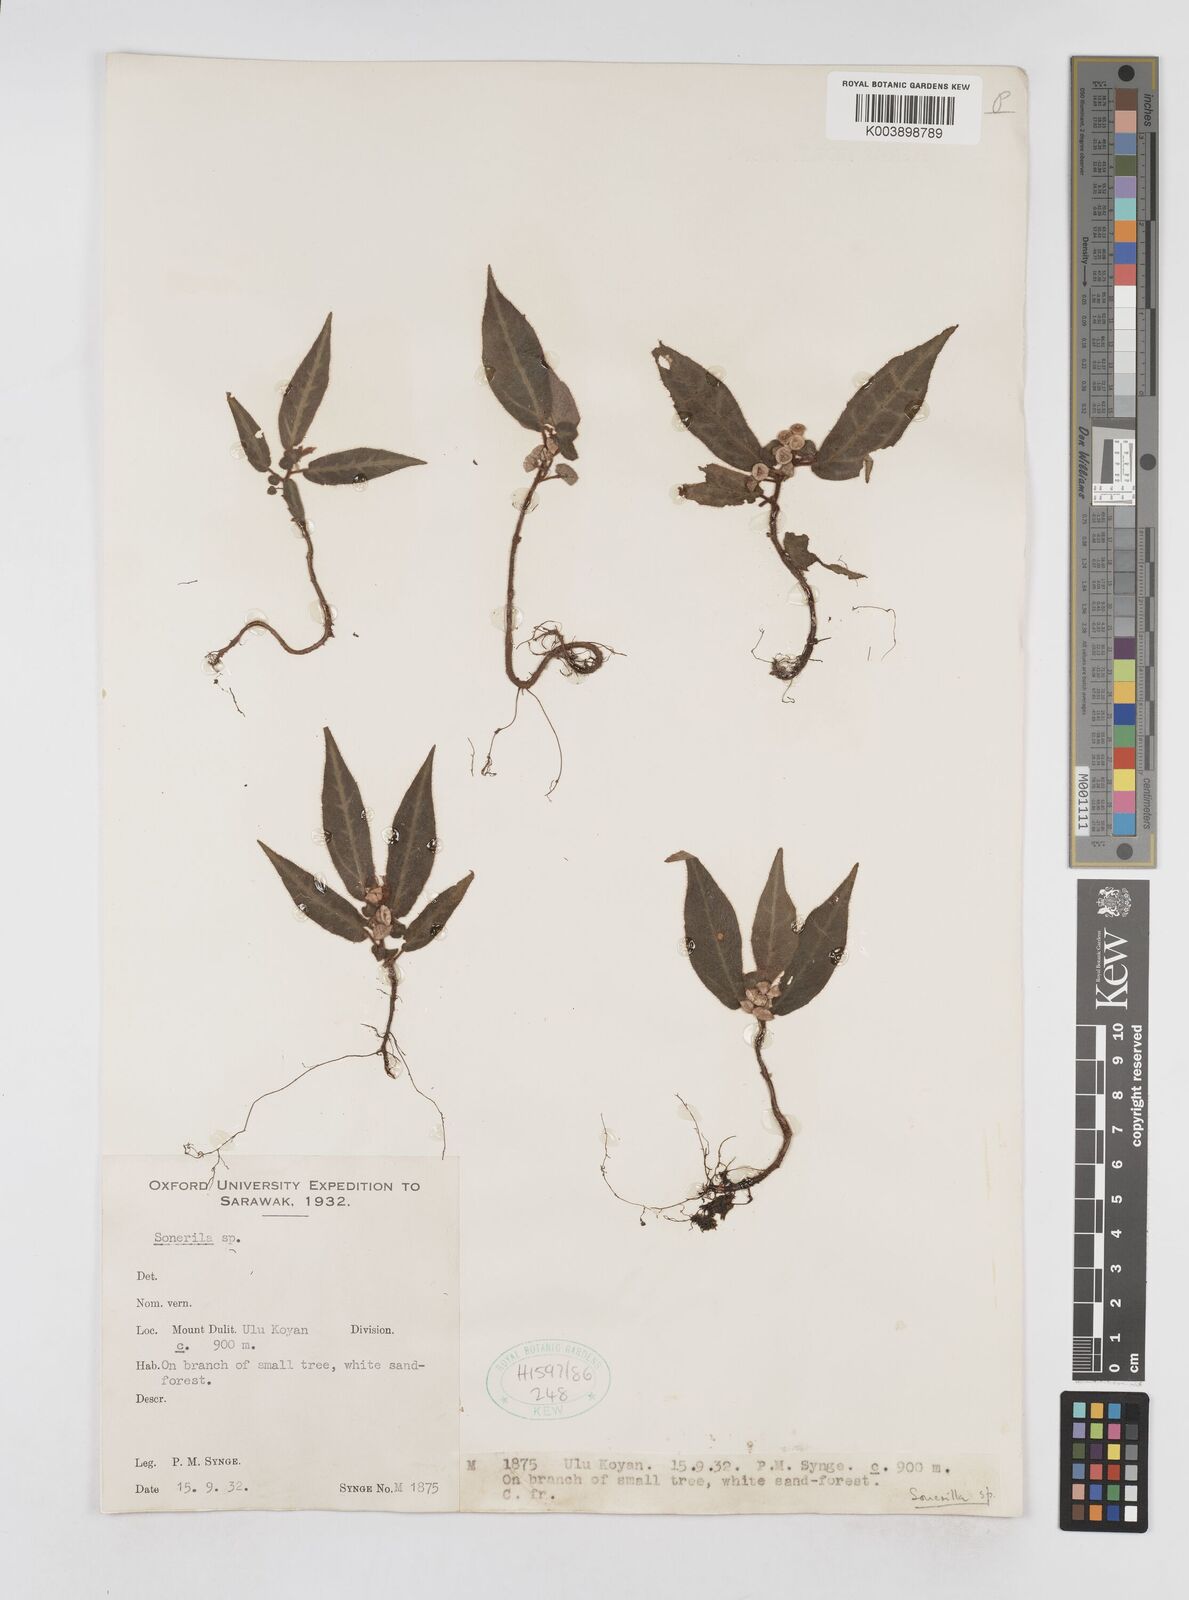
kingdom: Plantae
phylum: Tracheophyta
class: Magnoliopsida
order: Myrtales
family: Melastomataceae
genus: Sonerila
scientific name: Sonerila
